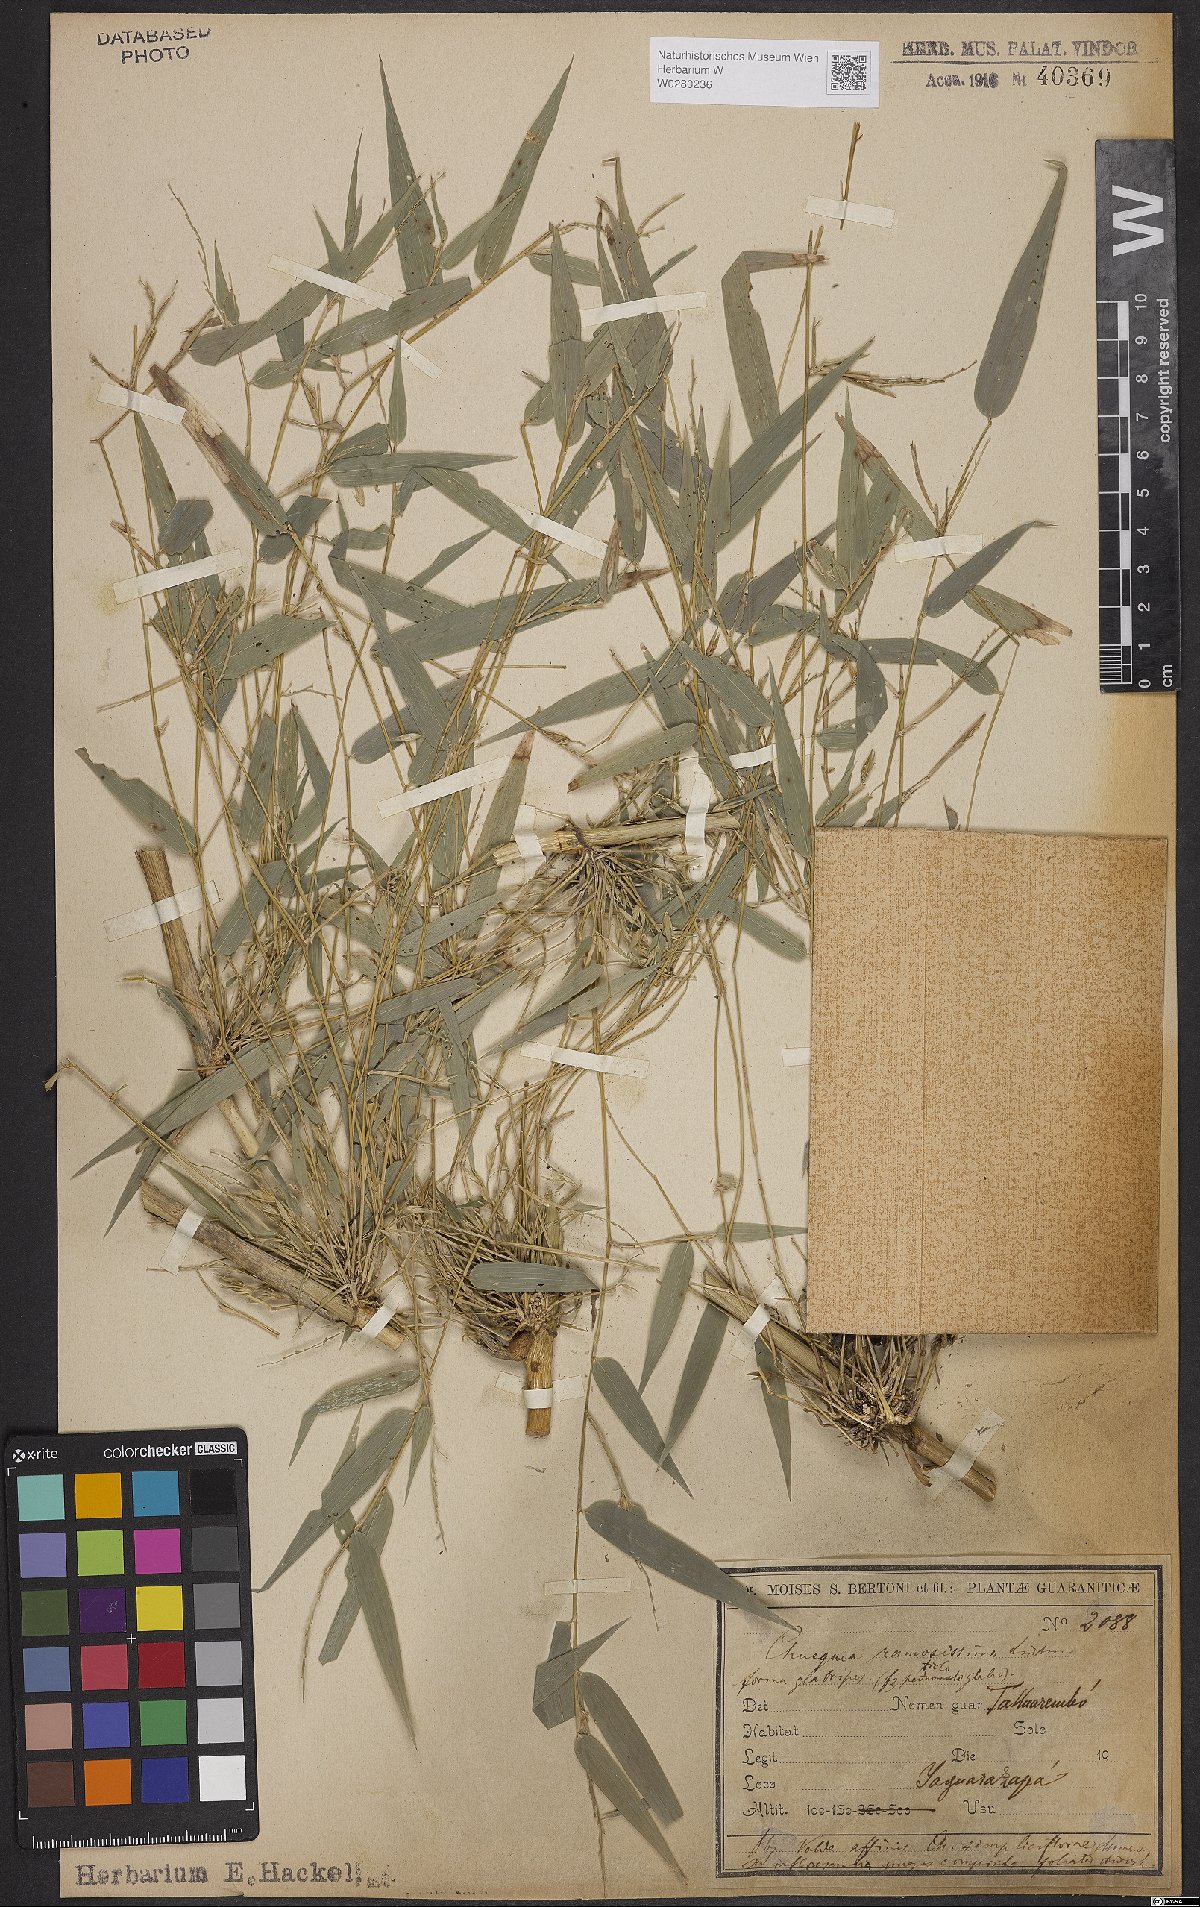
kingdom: Plantae
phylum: Tracheophyta
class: Liliopsida
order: Poales
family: Poaceae
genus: Chusquea
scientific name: Chusquea ramosissima
